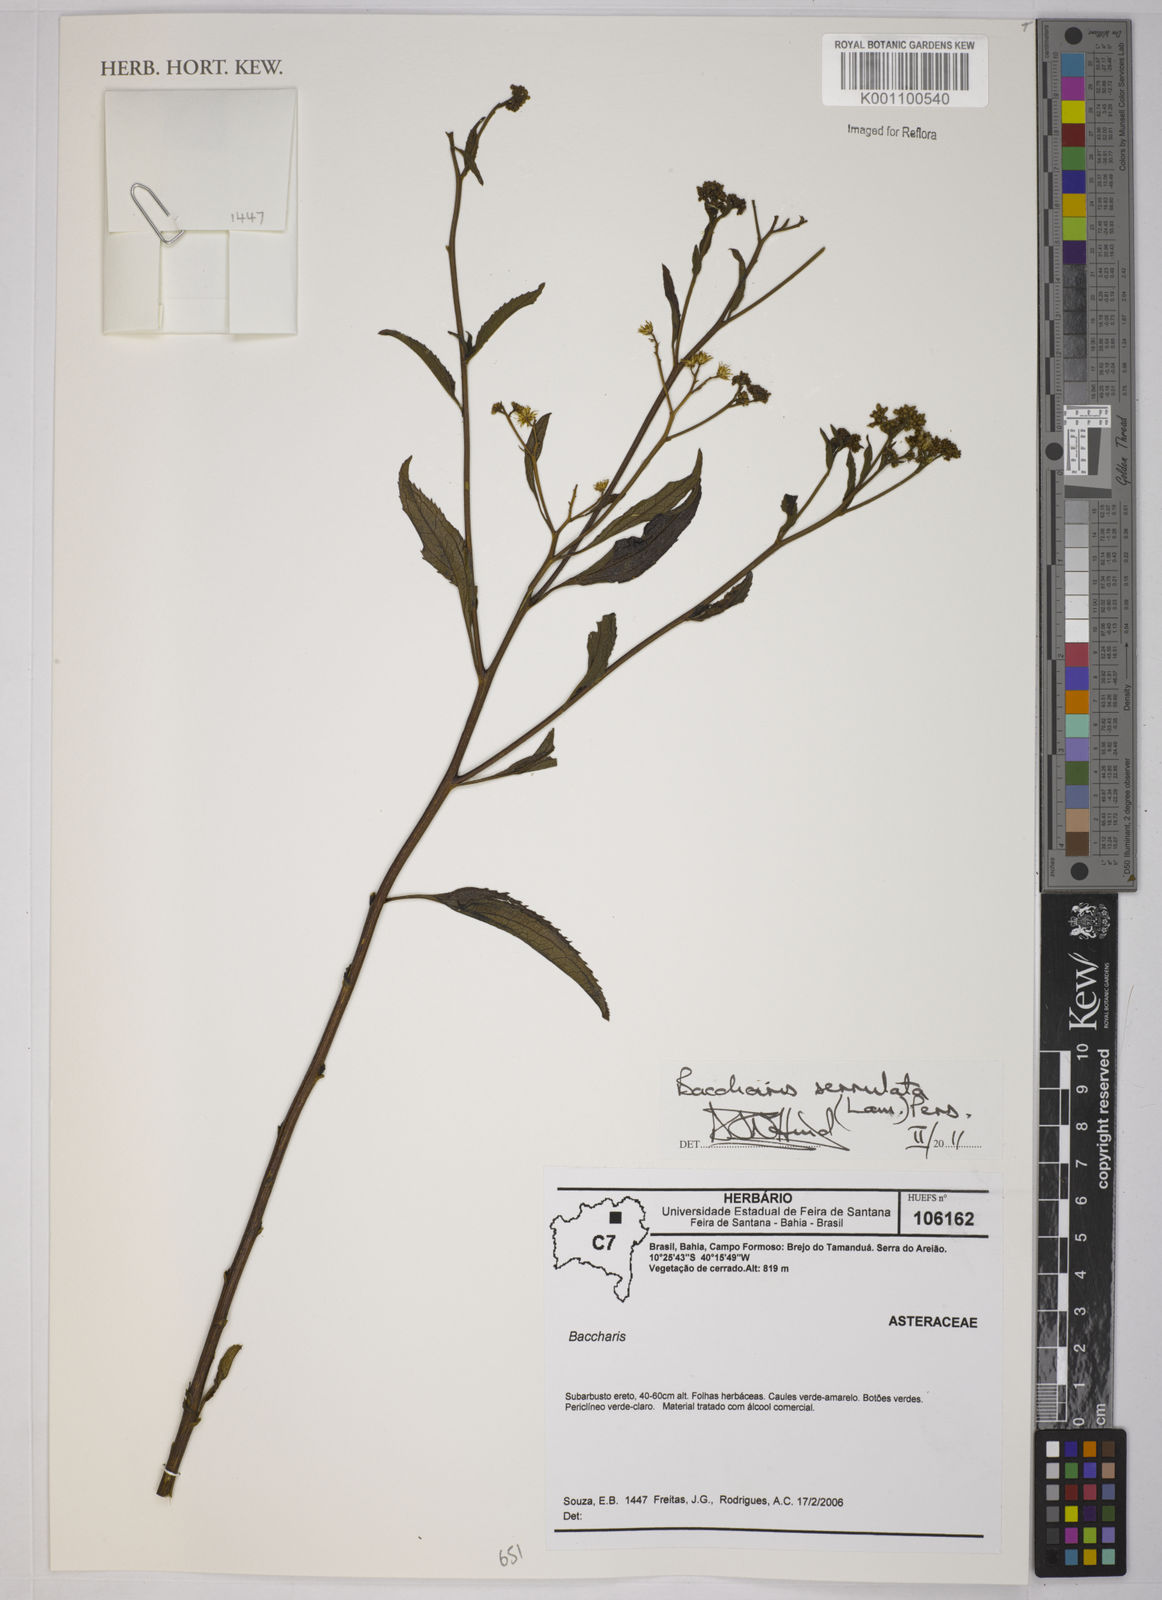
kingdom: Plantae
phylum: Tracheophyta
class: Magnoliopsida
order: Asterales
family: Asteraceae
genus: Baccharis
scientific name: Baccharis serrulata
